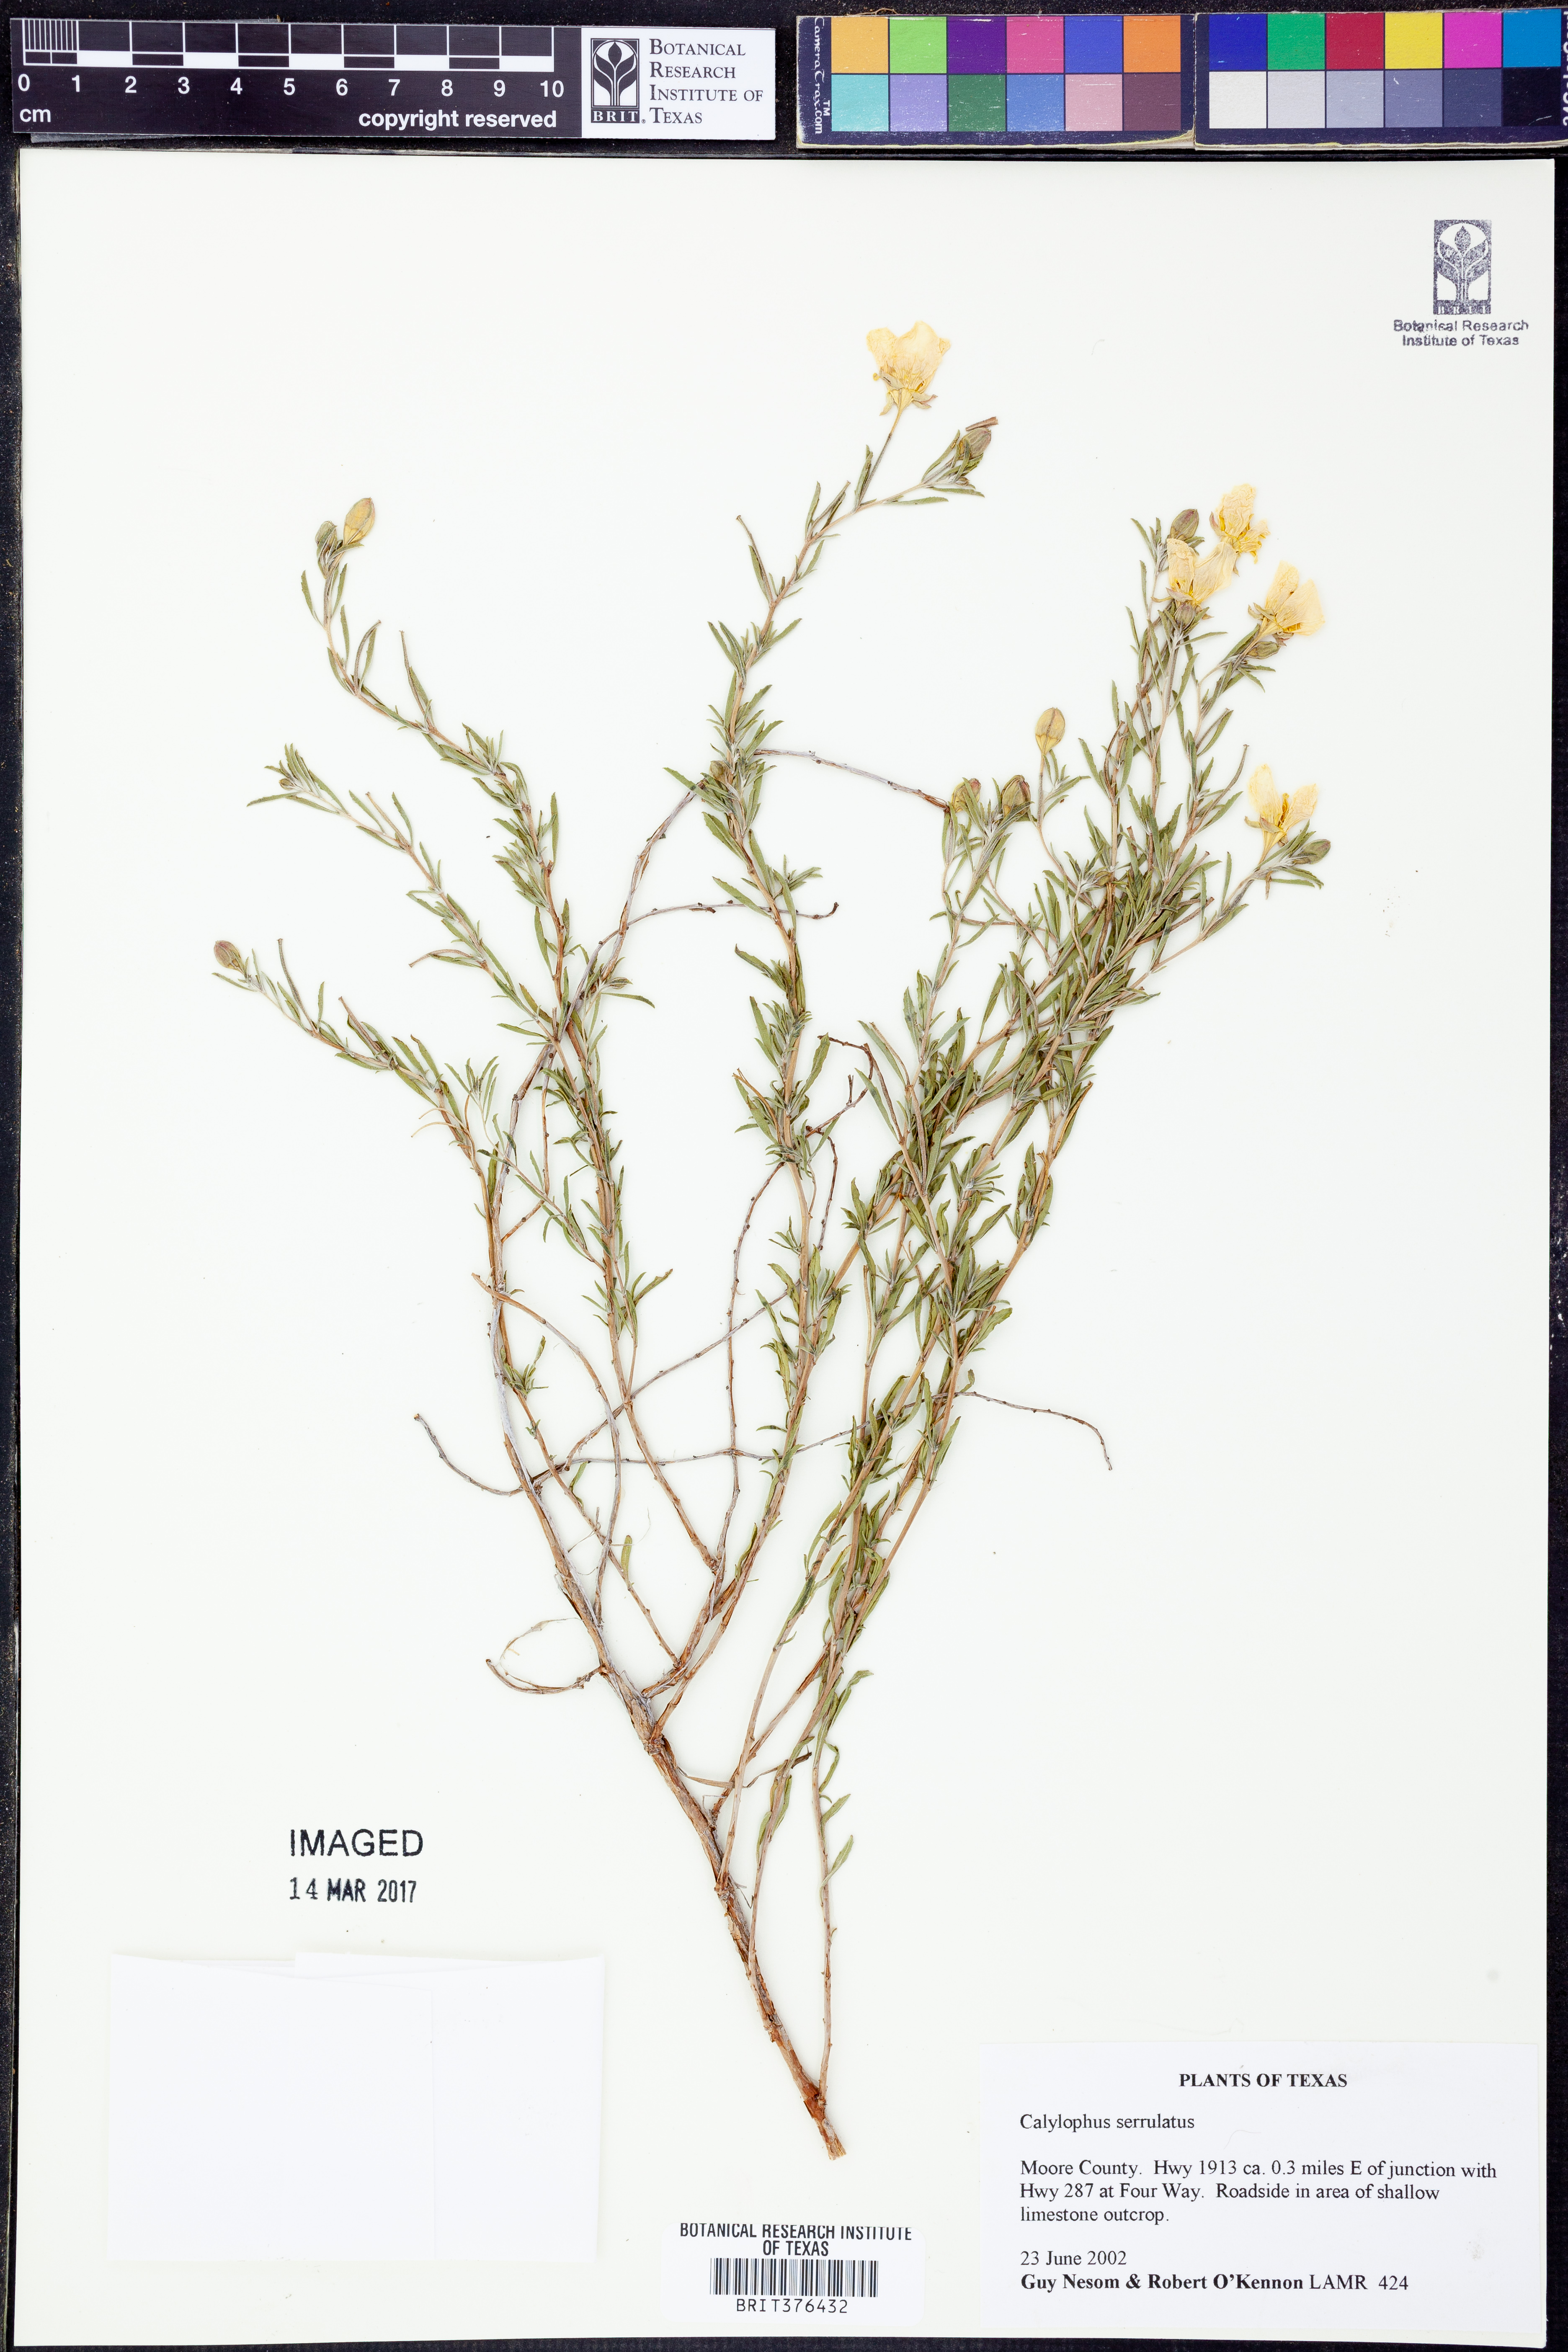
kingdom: Plantae
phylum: Tracheophyta
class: Magnoliopsida
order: Myrtales
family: Onagraceae
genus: Oenothera
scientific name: Oenothera serrulata
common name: Half-shrub calylophus
